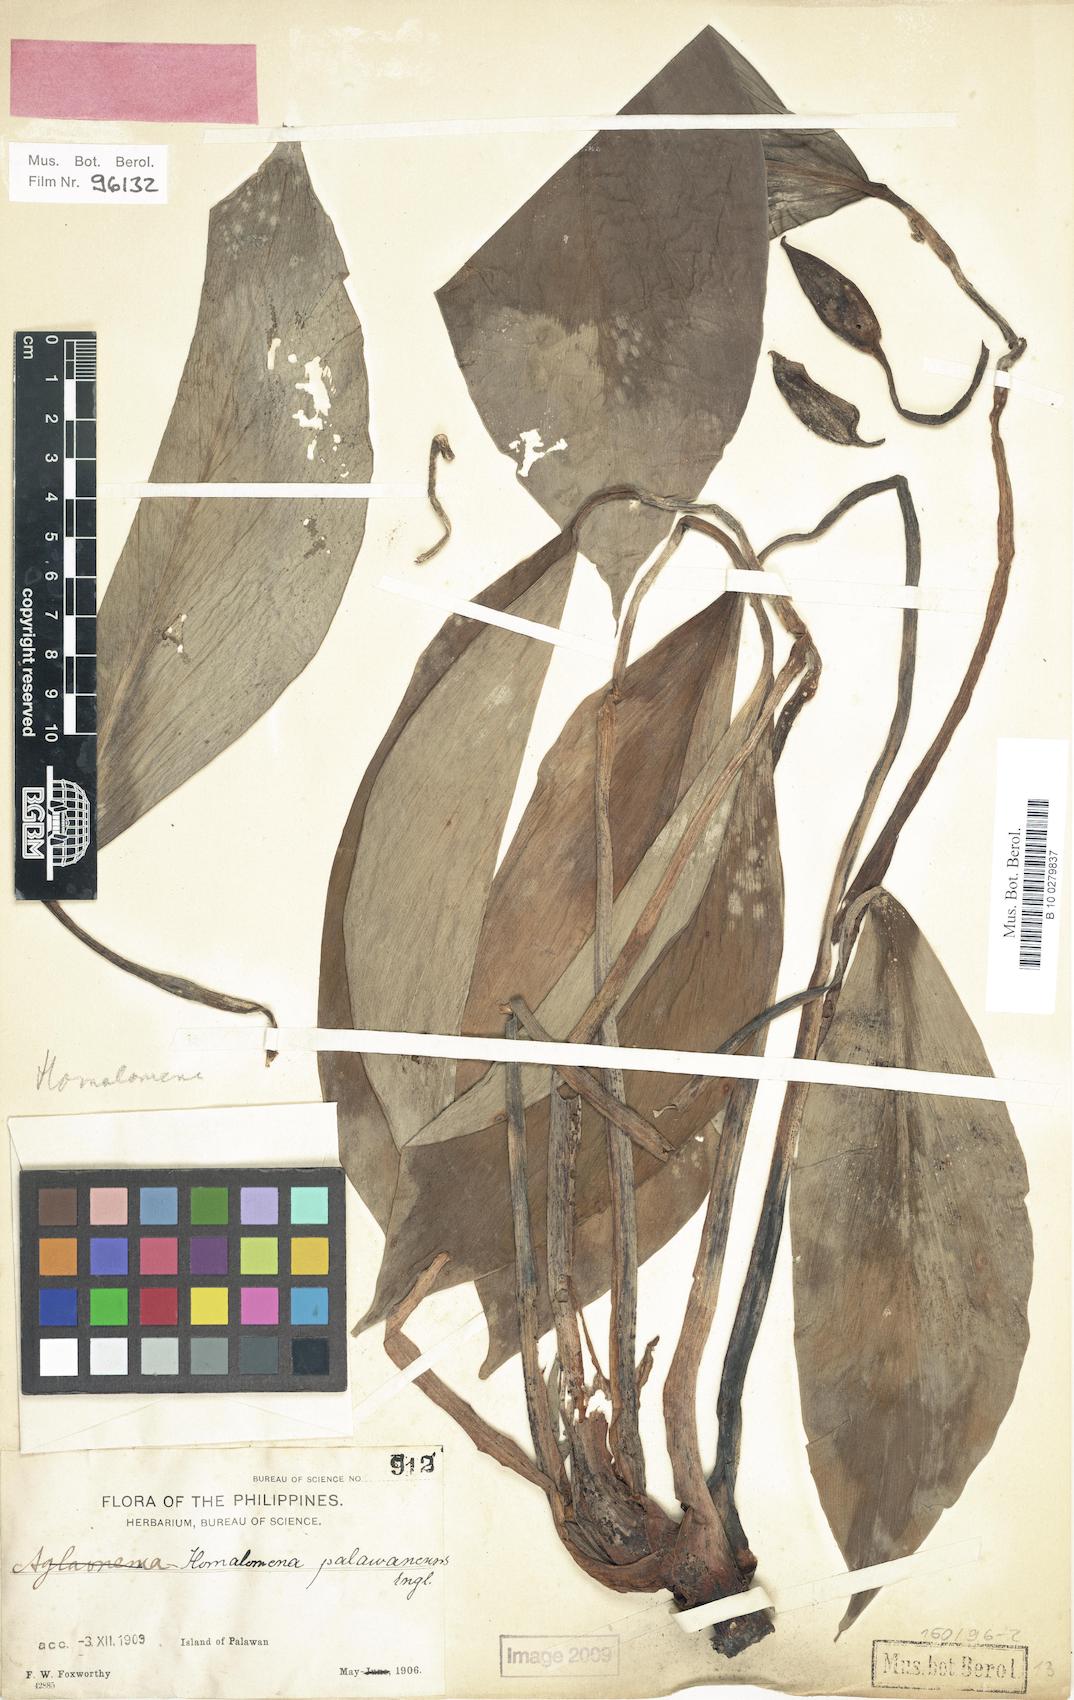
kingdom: Plantae
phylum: Tracheophyta
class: Liliopsida
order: Alismatales
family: Araceae
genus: Homalomena
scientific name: Homalomena palawanensis
